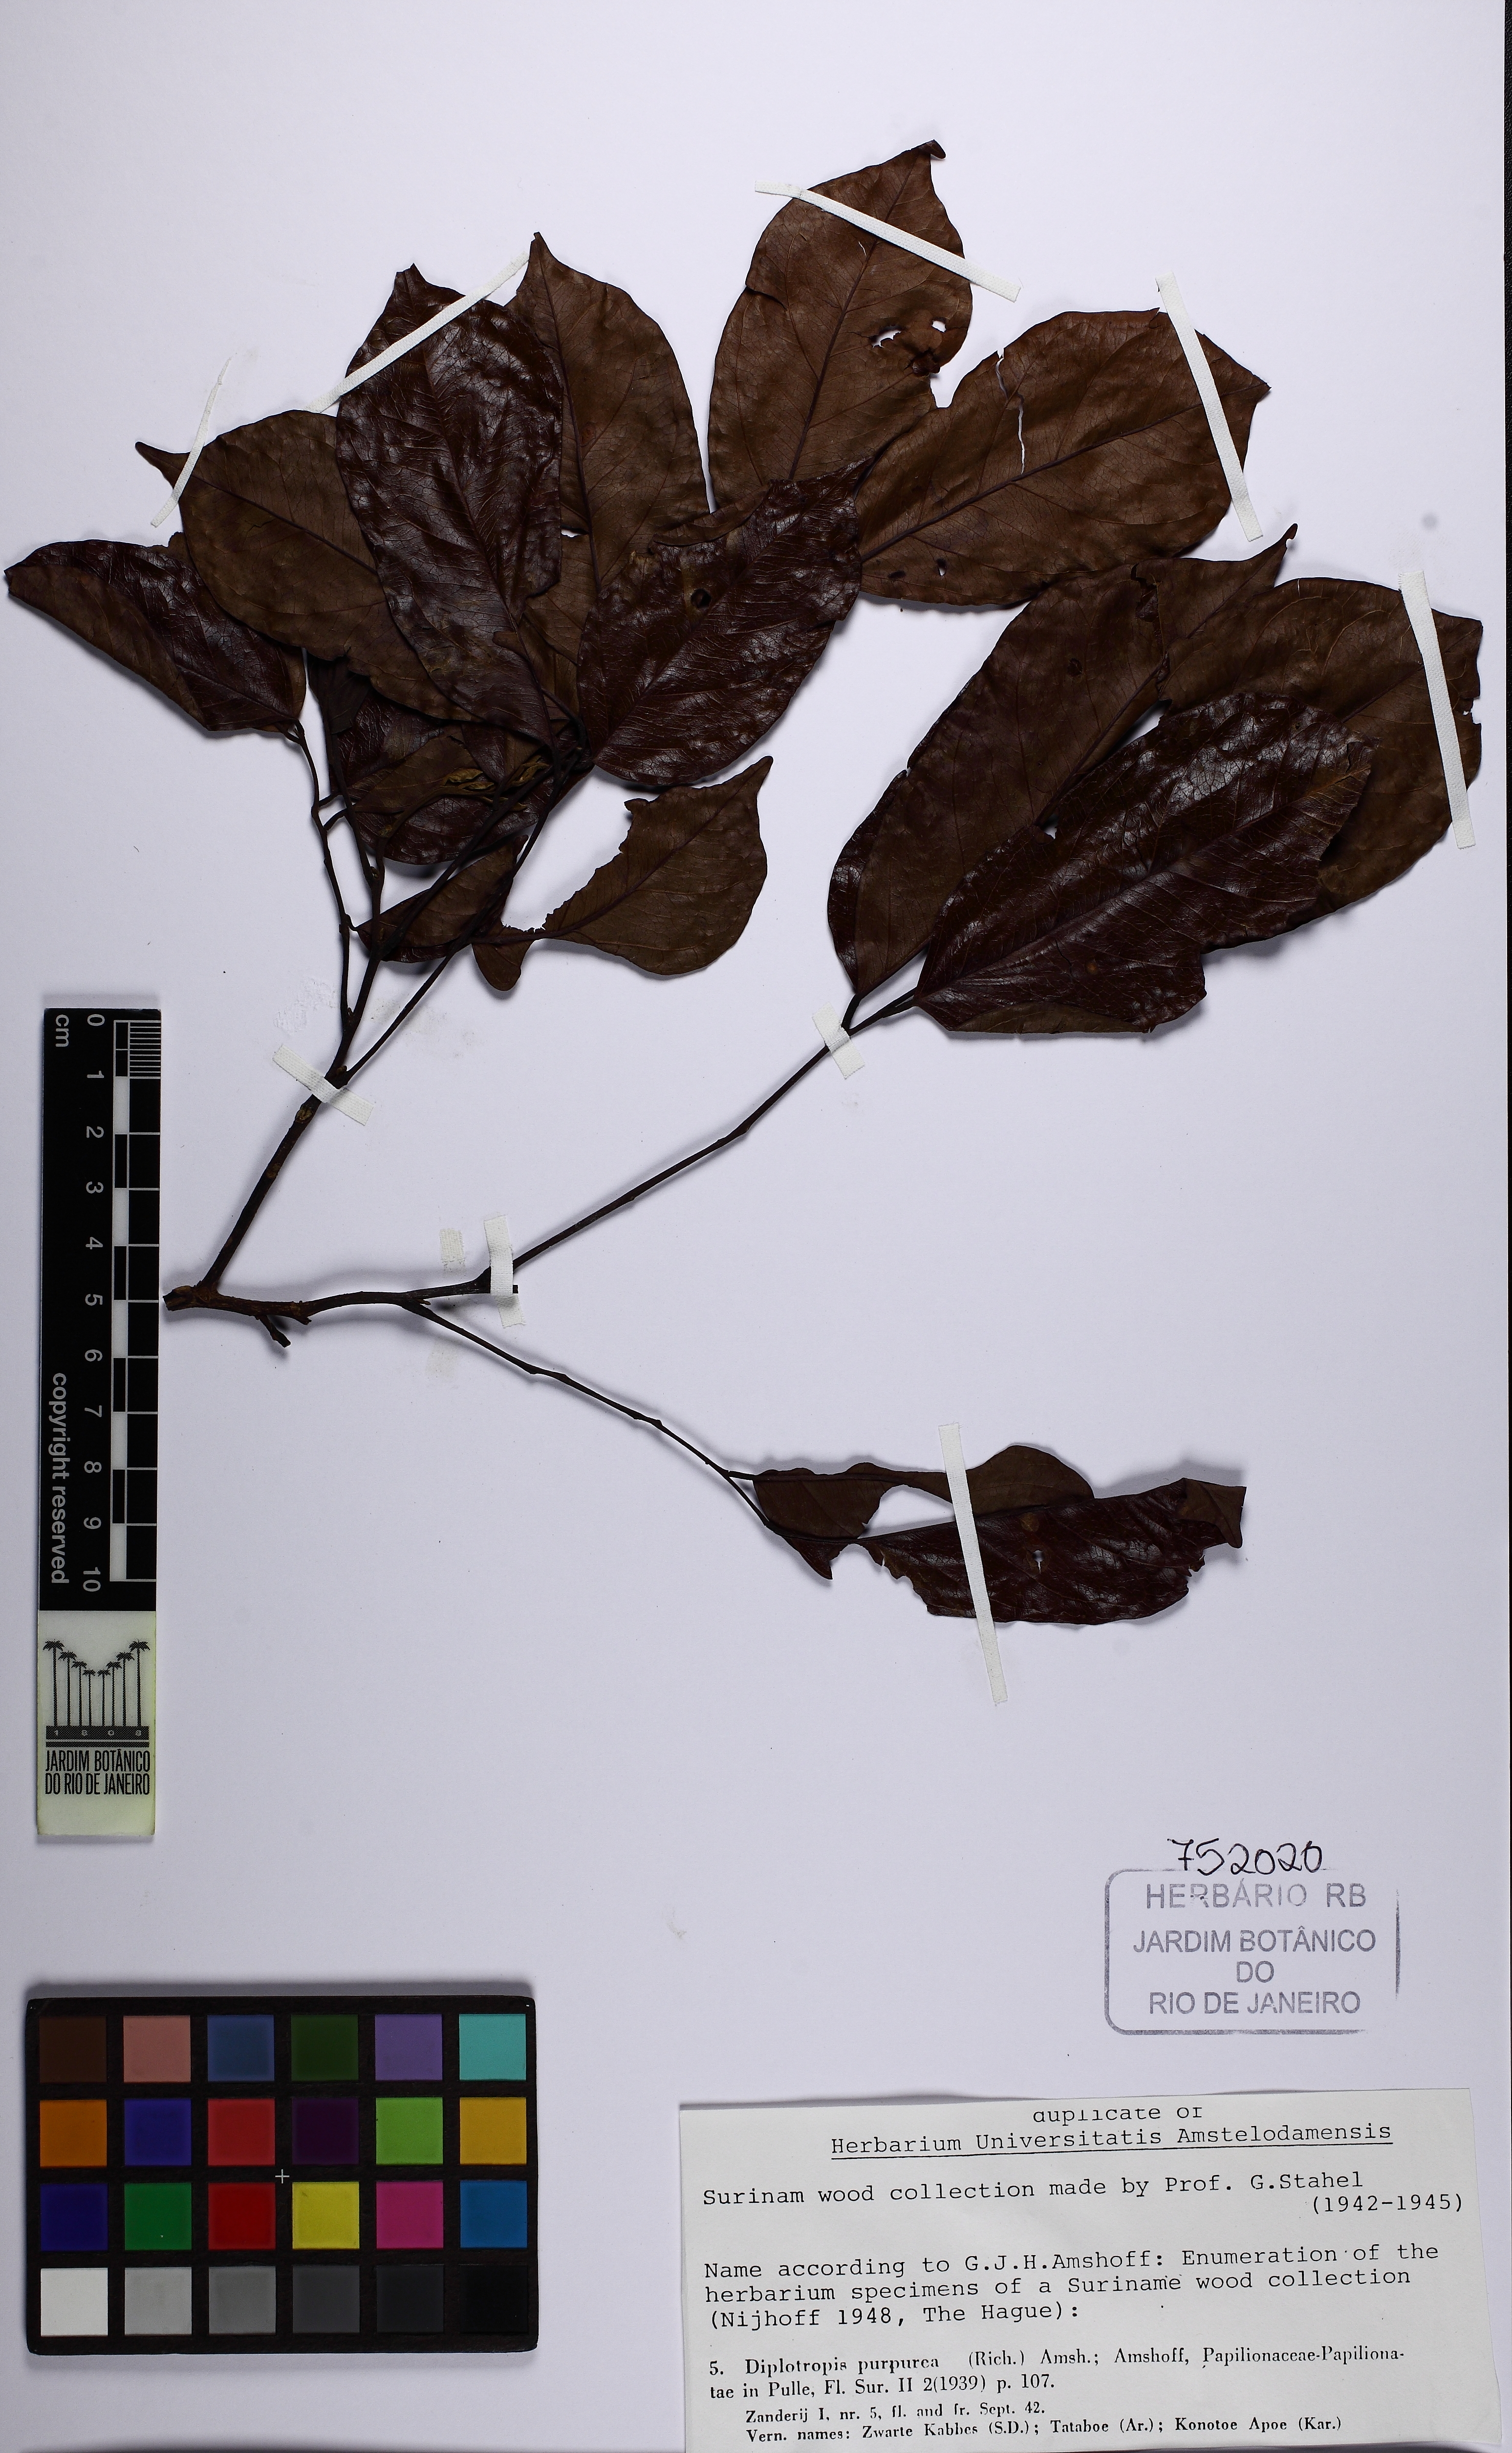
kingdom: Plantae
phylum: Tracheophyta
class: Magnoliopsida
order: Fabales
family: Fabaceae
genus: Diplotropis
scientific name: Diplotropis purpurea
